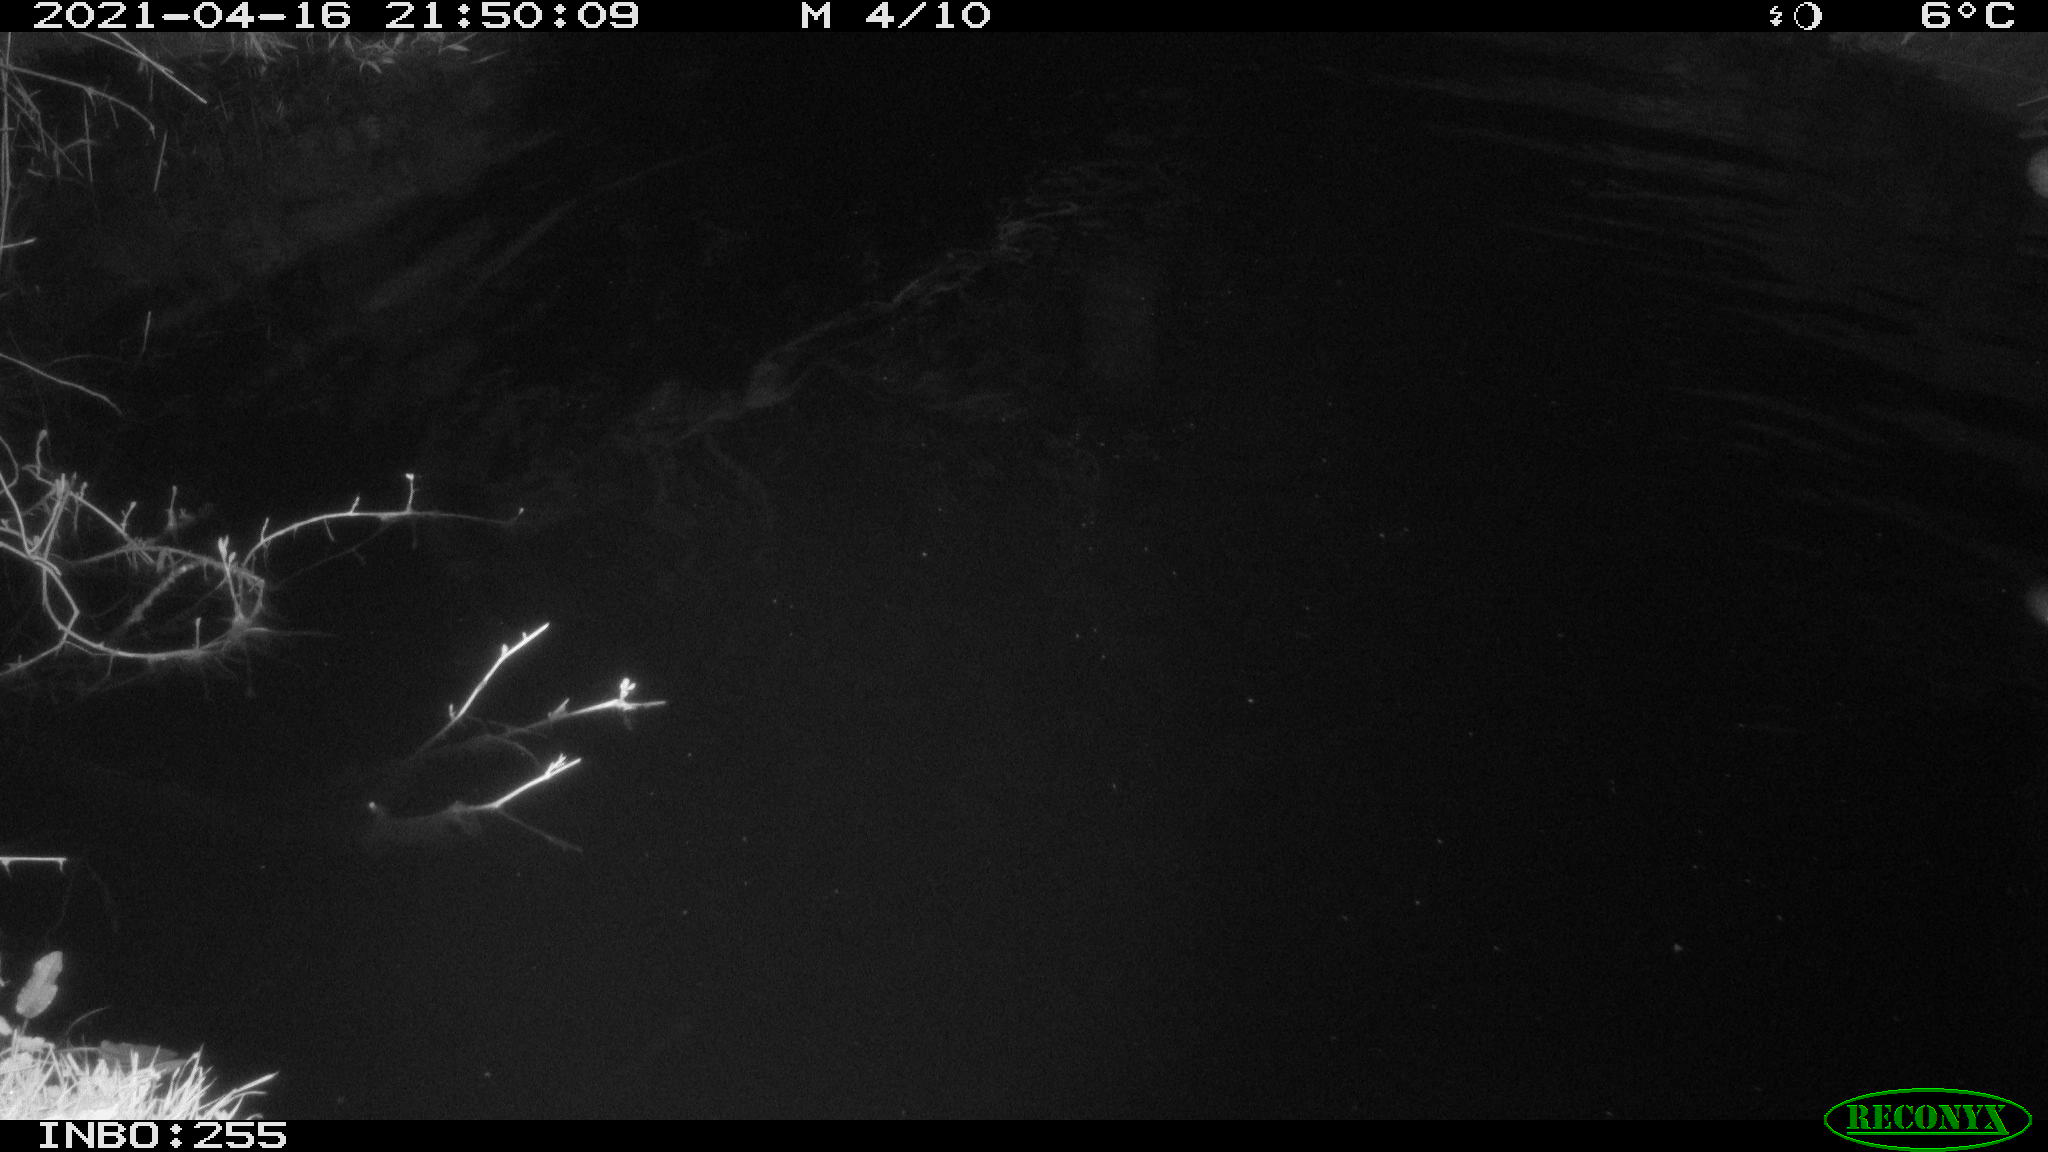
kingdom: Animalia
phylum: Chordata
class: Aves
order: Anseriformes
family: Anatidae
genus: Anas
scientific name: Anas platyrhynchos
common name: Mallard
